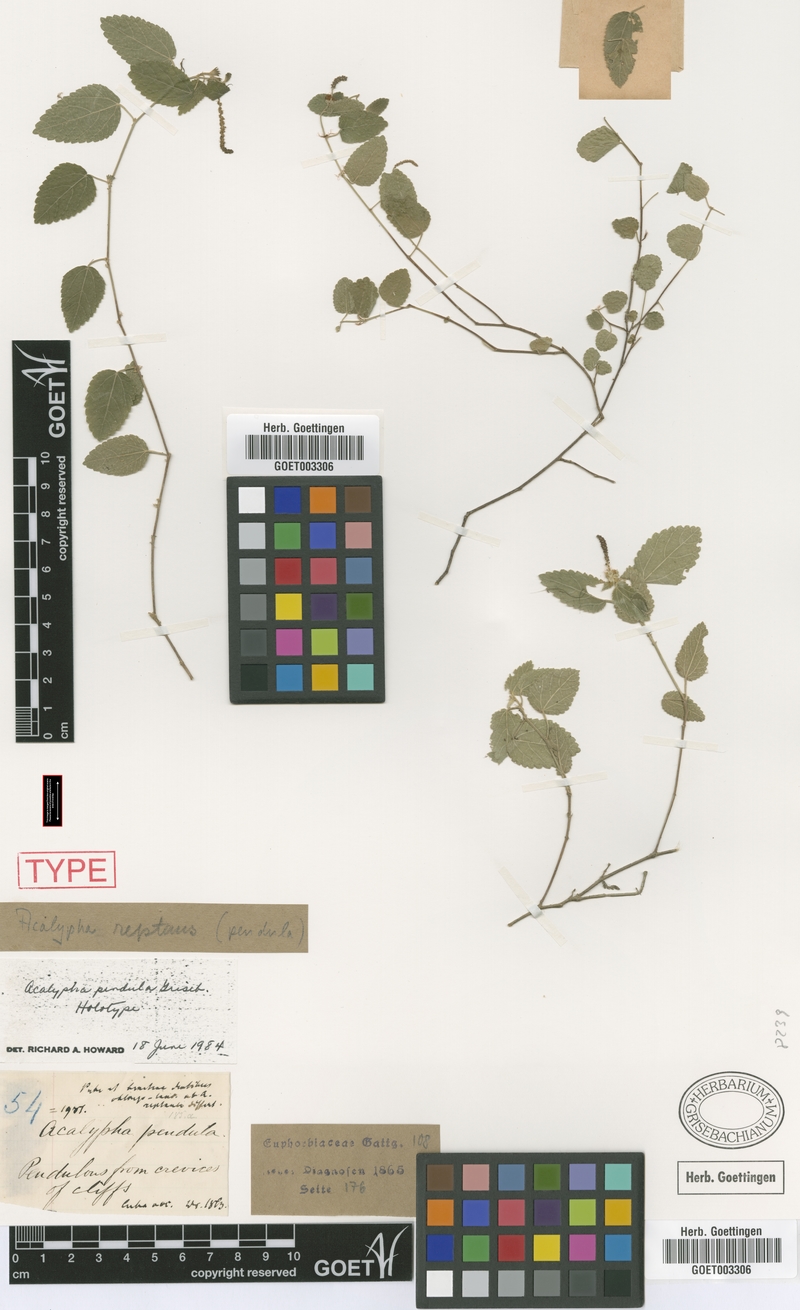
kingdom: Plantae
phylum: Tracheophyta
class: Magnoliopsida
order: Malpighiales
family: Euphorbiaceae
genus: Acalypha
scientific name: Acalypha pendula
